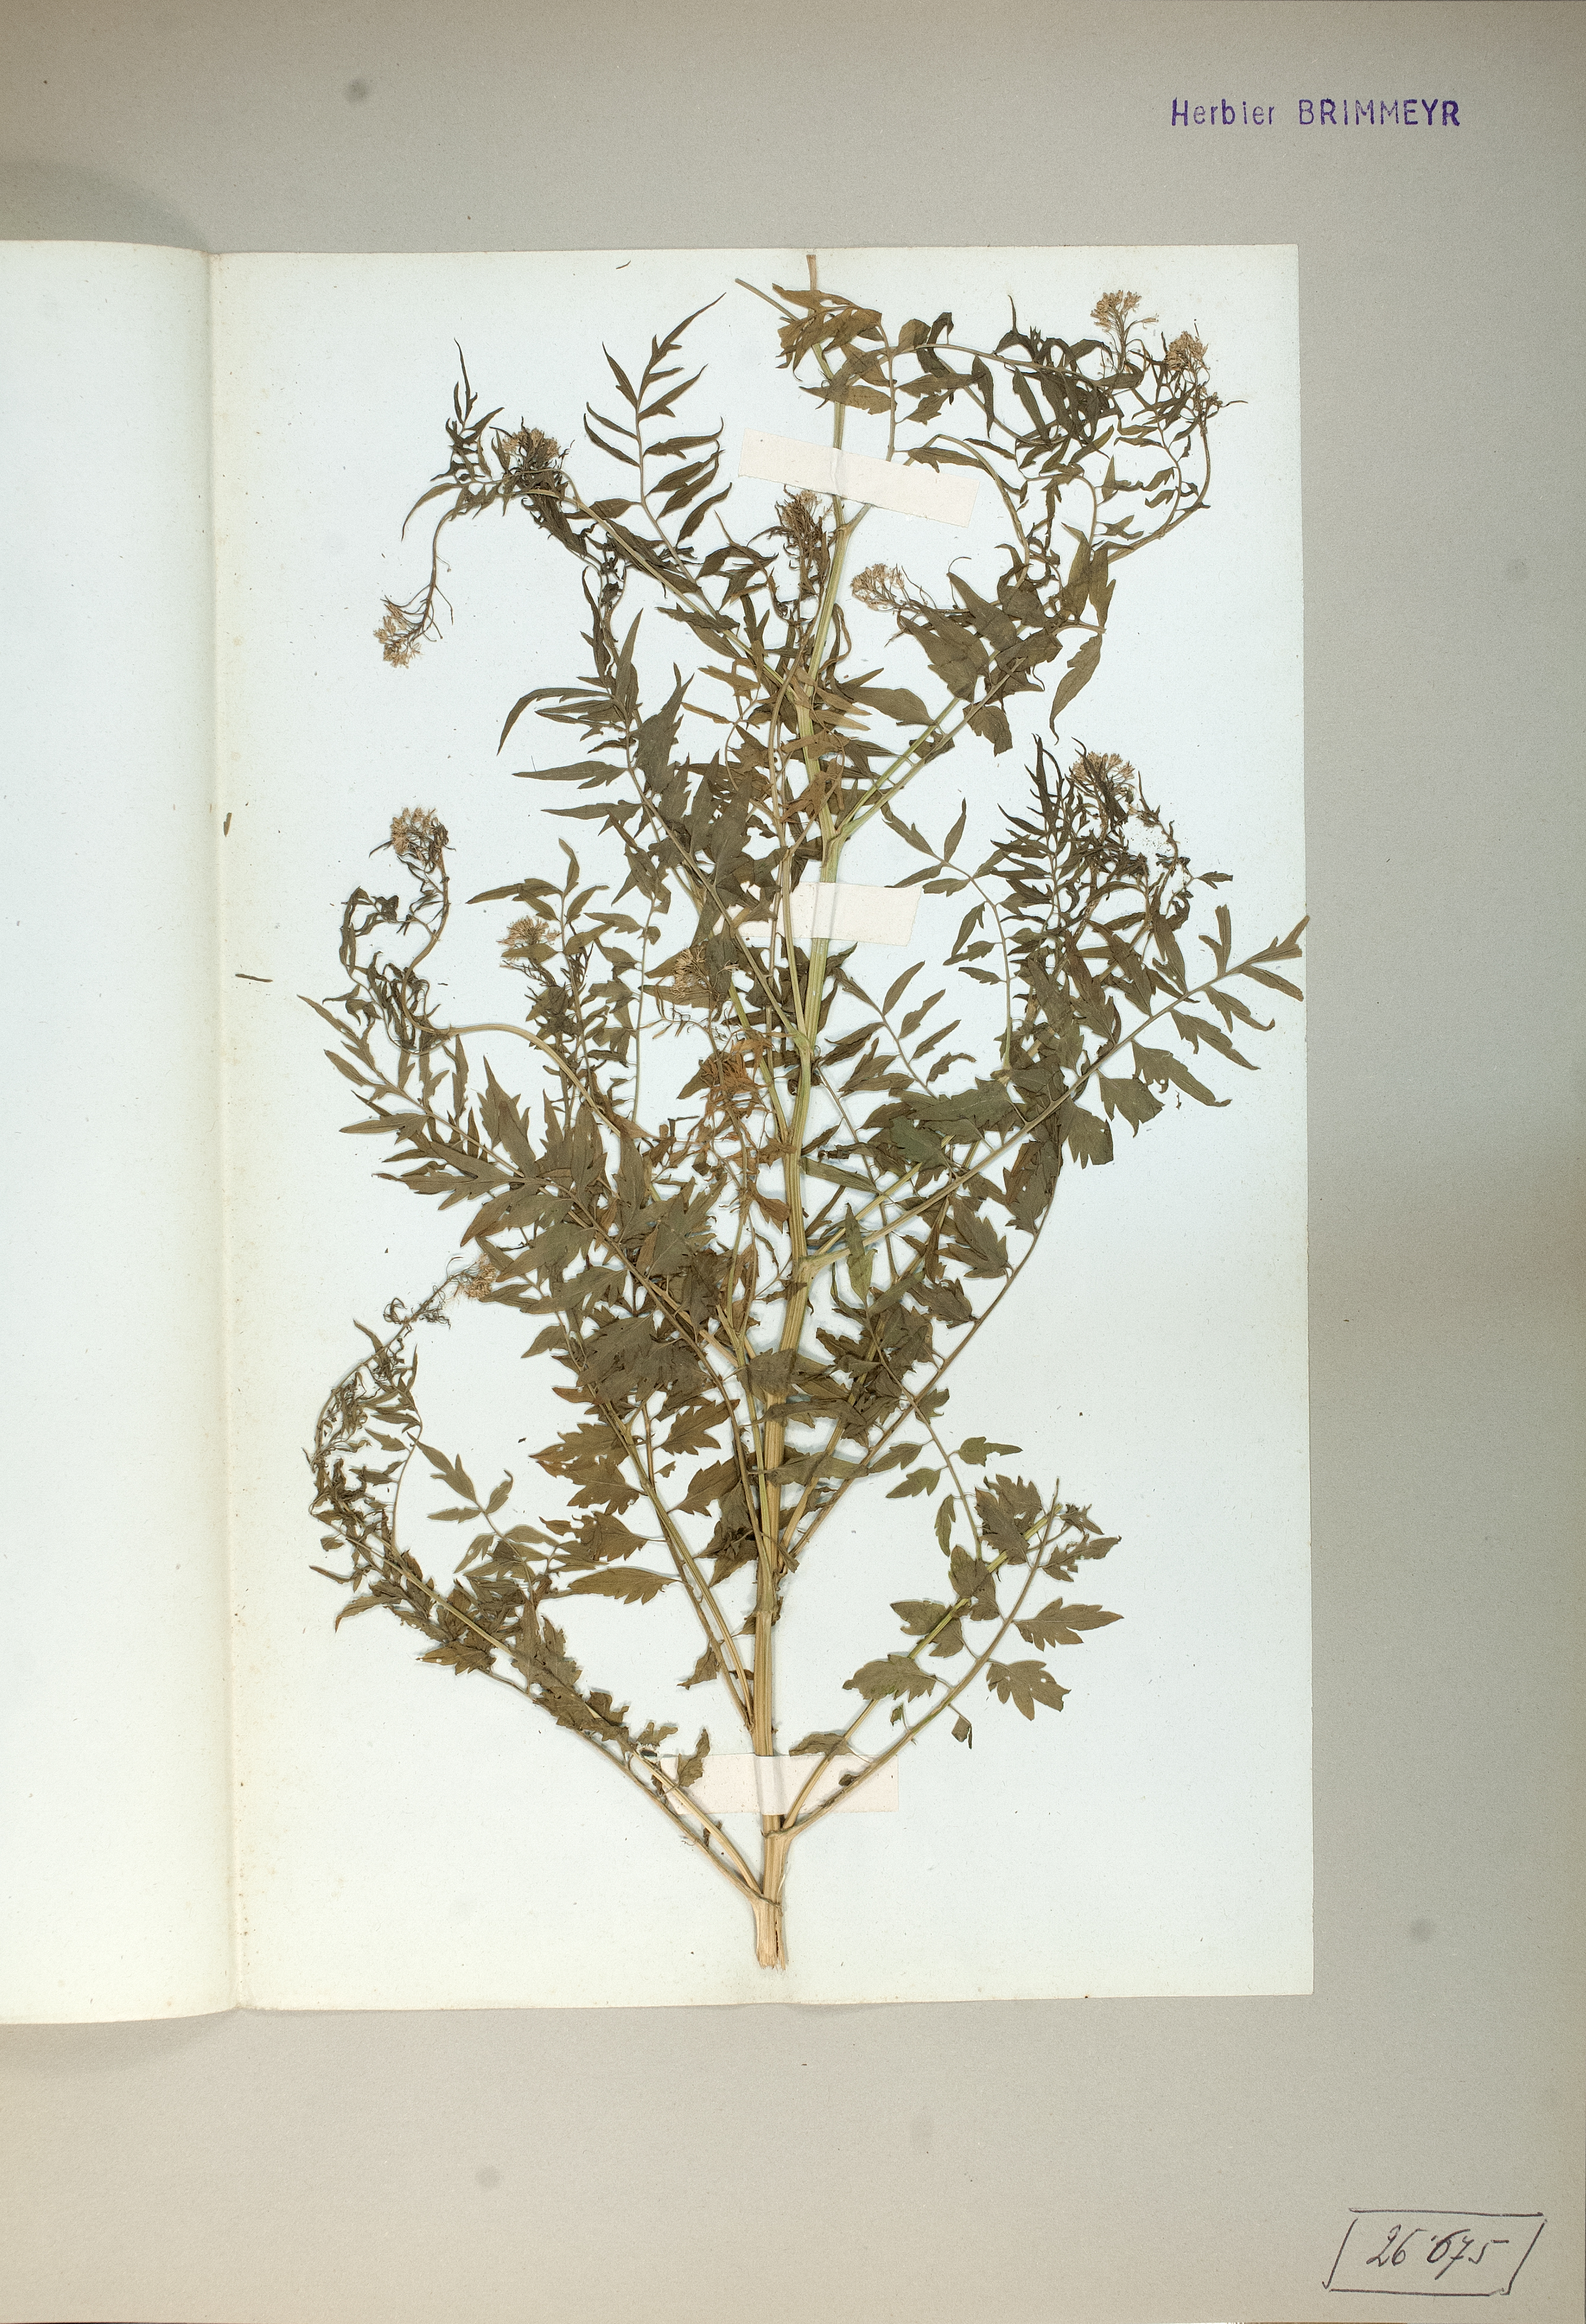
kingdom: Plantae
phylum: Tracheophyta
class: Magnoliopsida
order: Brassicales
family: Brassicaceae
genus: Cardamine
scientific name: Cardamine impatiens
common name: Narrow-leaved bitter-cress
